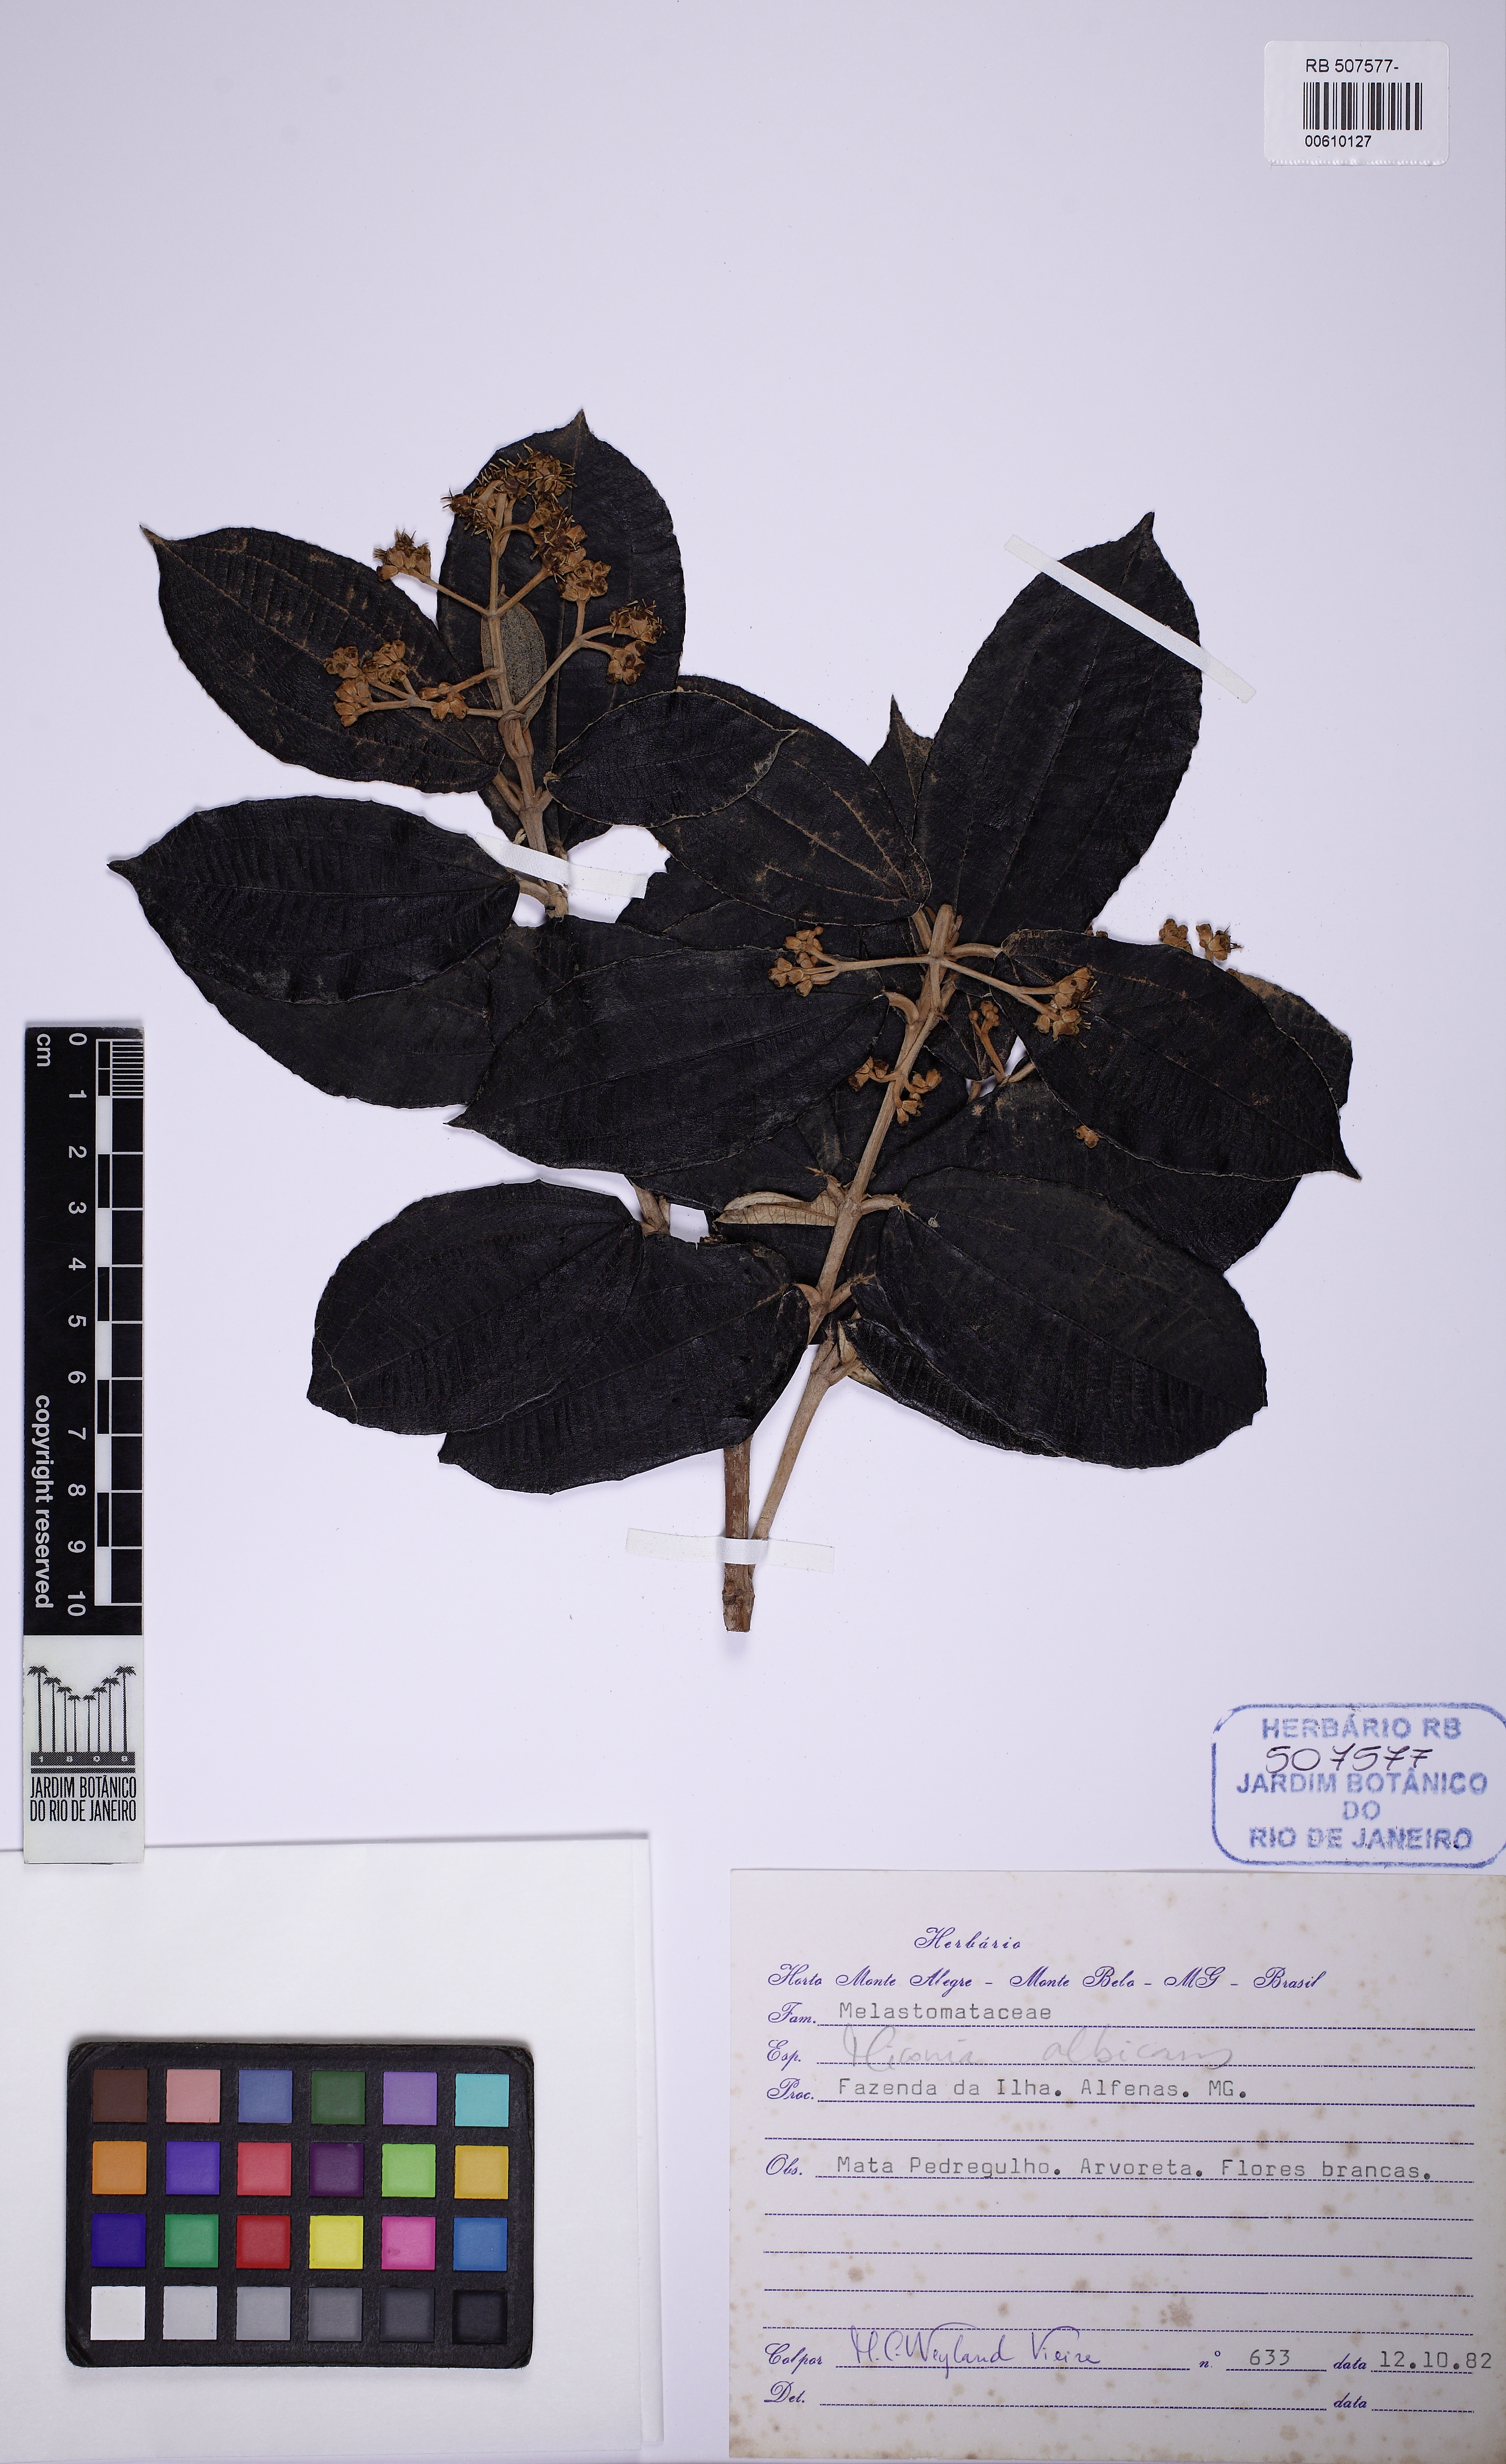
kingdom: Plantae
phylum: Tracheophyta
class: Magnoliopsida
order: Myrtales
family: Melastomataceae
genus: Miconia
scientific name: Miconia albicans
